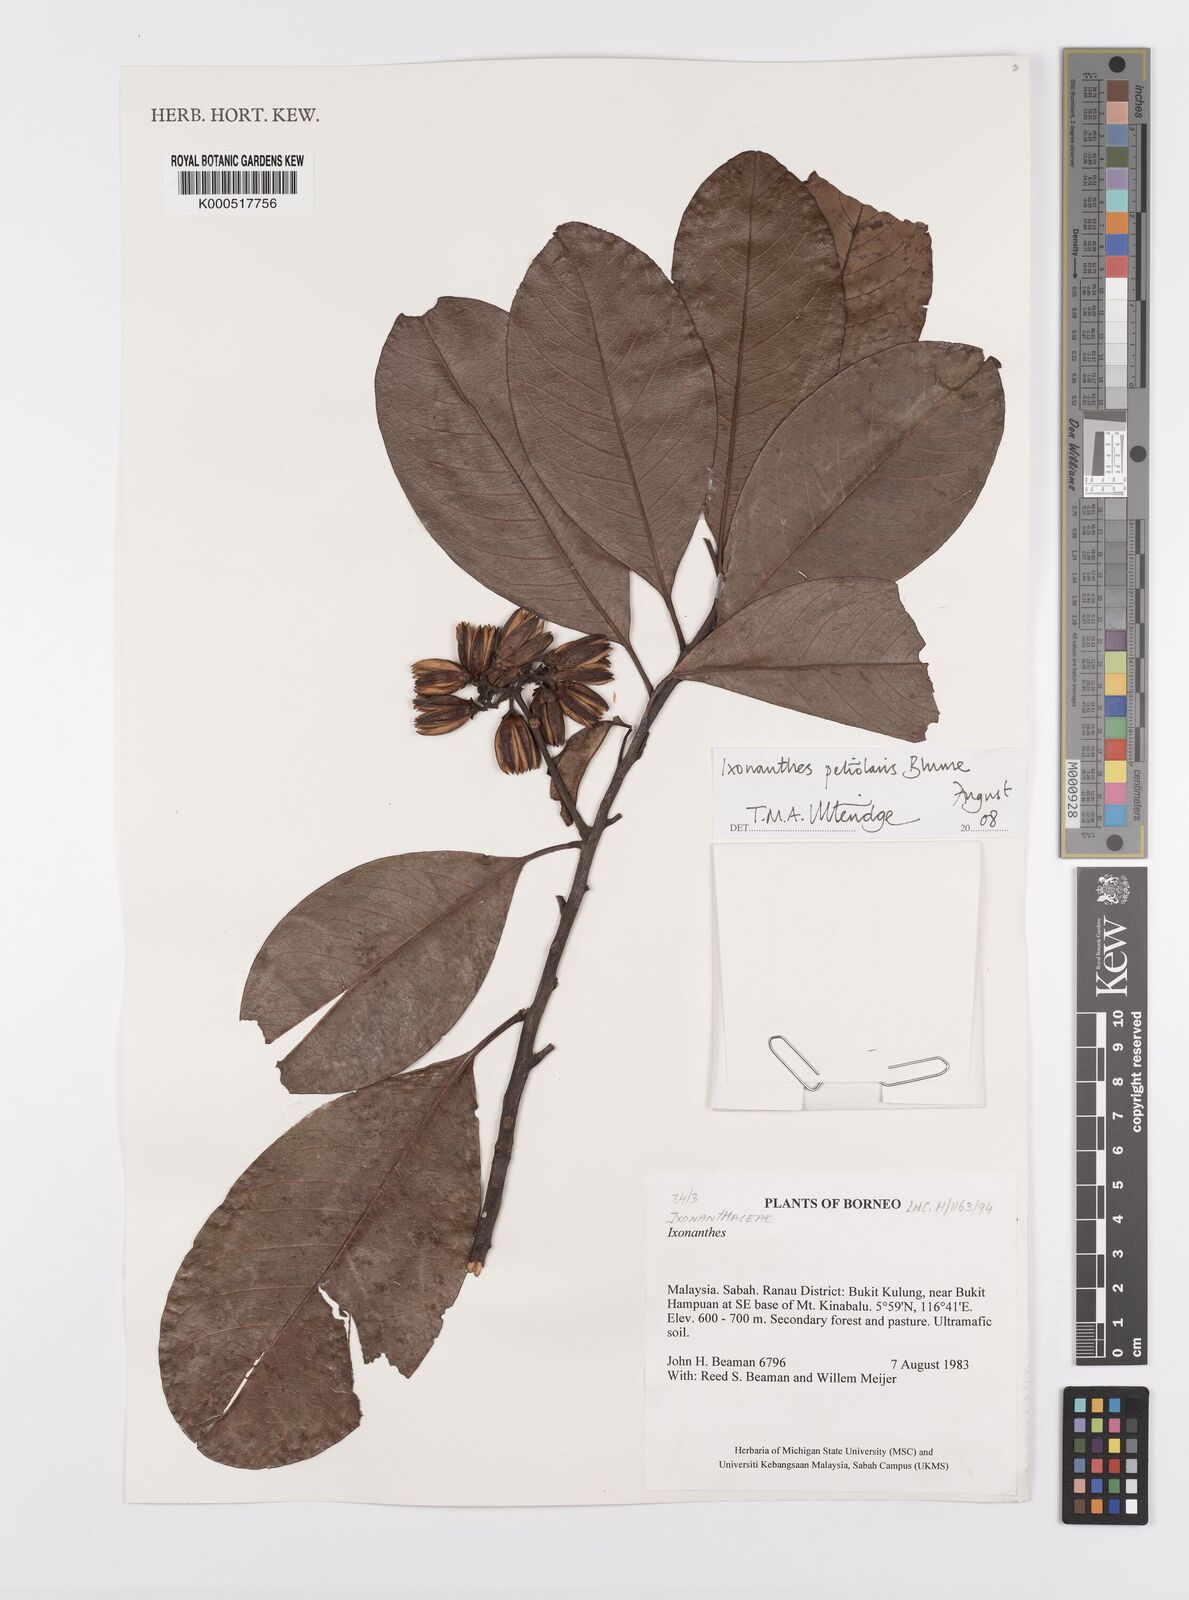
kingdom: Plantae
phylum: Tracheophyta
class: Magnoliopsida
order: Malpighiales
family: Ixonanthaceae
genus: Ixonanthes
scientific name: Ixonanthes petiolaris
